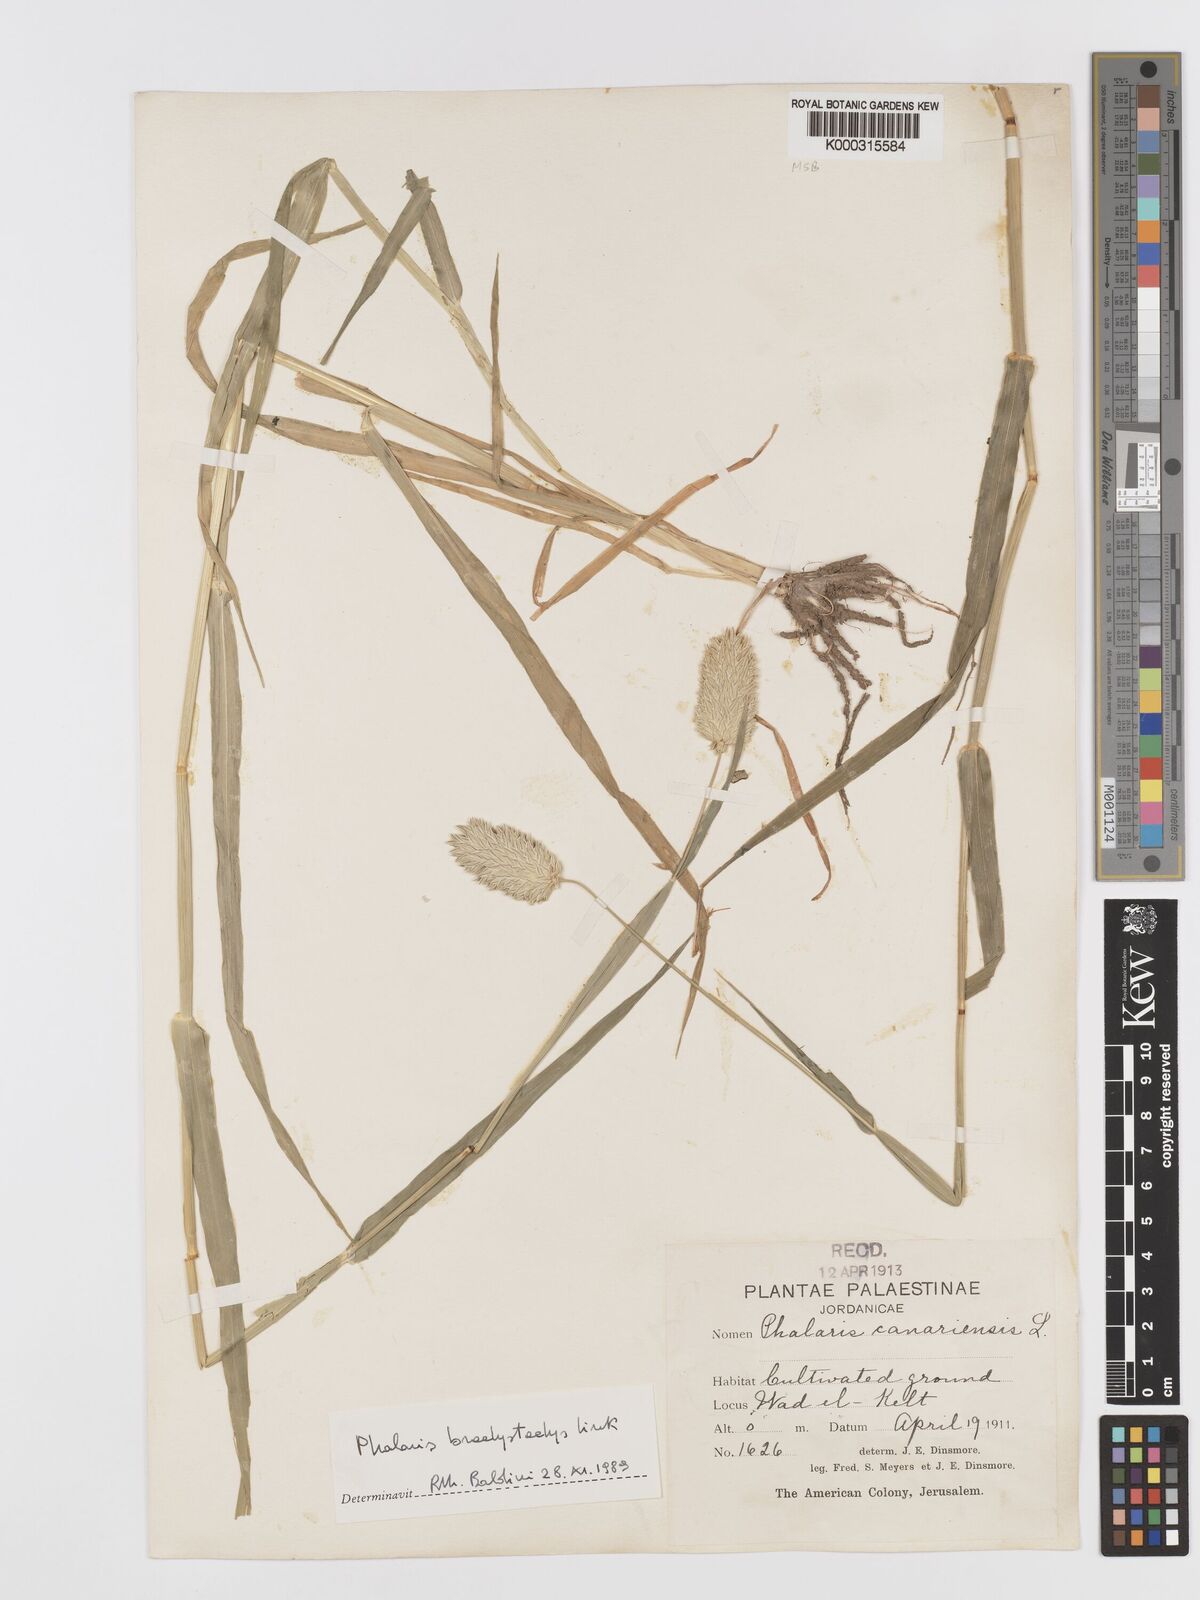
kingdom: Plantae
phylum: Tracheophyta
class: Liliopsida
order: Poales
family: Poaceae
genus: Phalaris
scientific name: Phalaris canariensis
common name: Annual canarygrass
